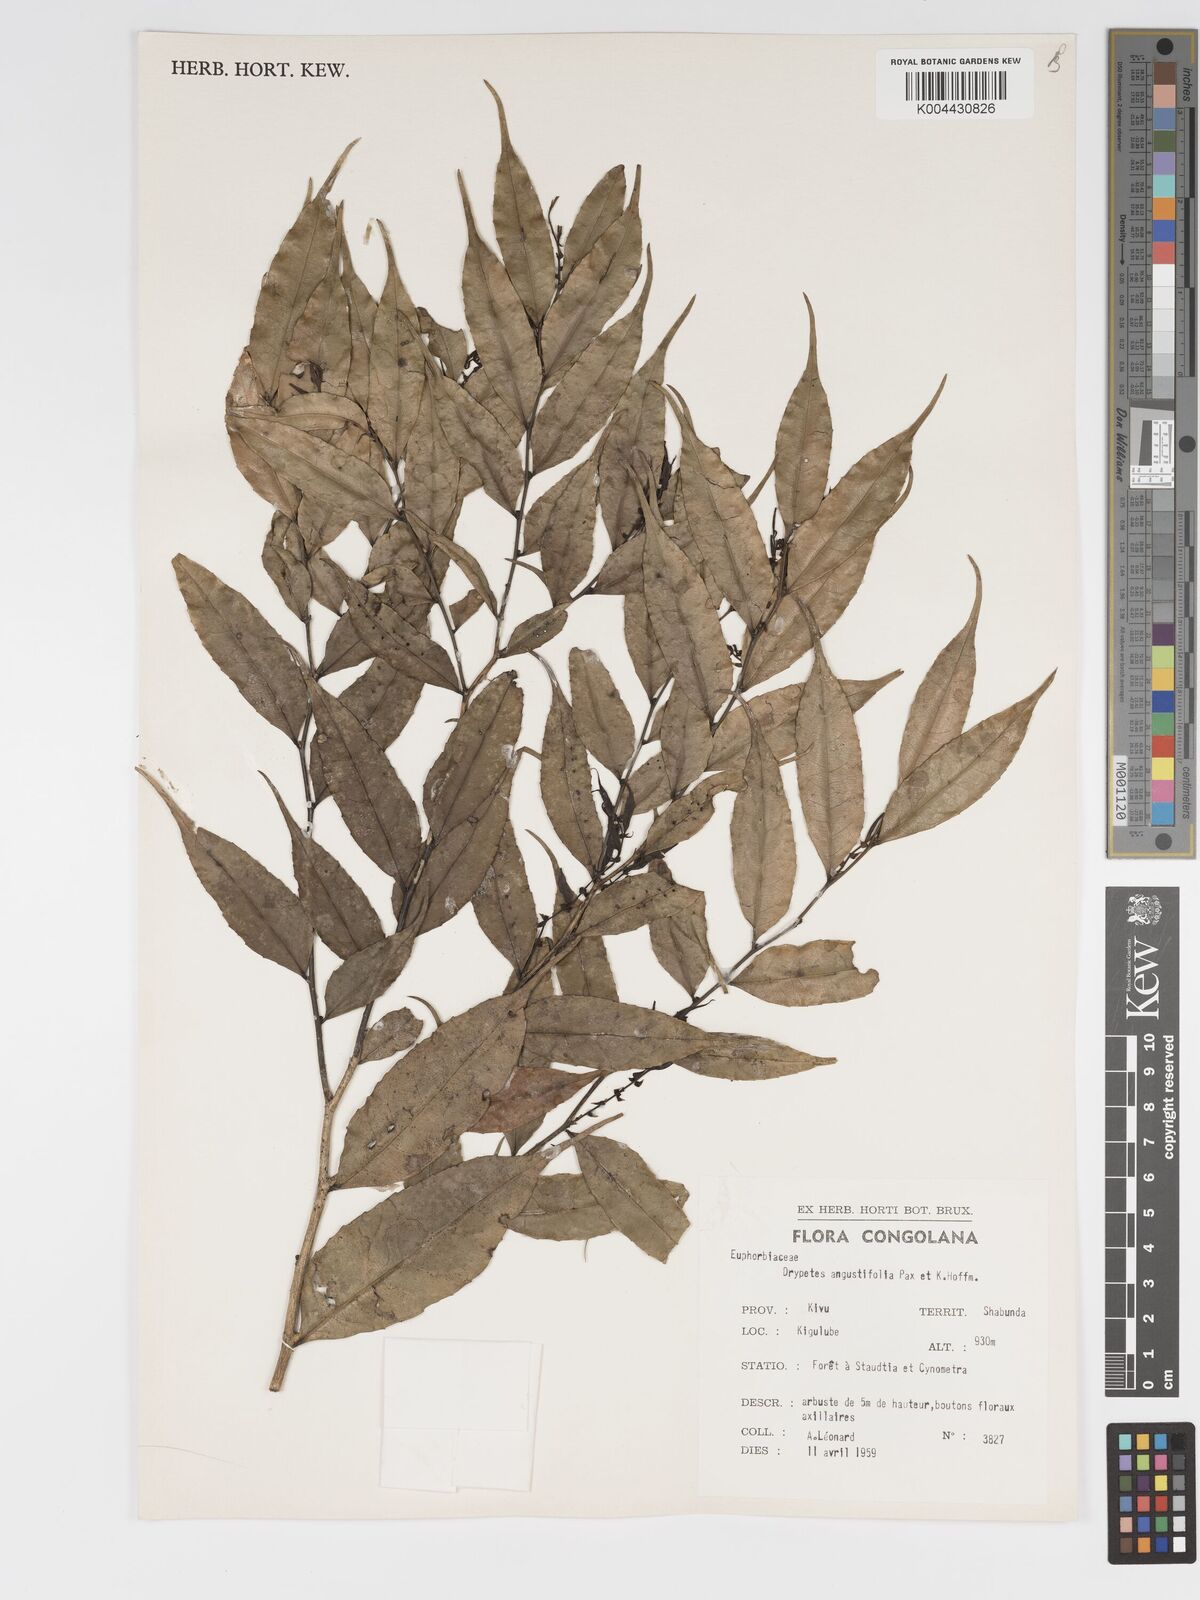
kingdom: Plantae
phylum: Tracheophyta
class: Magnoliopsida
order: Malpighiales
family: Putranjivaceae
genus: Drypetes
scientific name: Drypetes angustifolia
